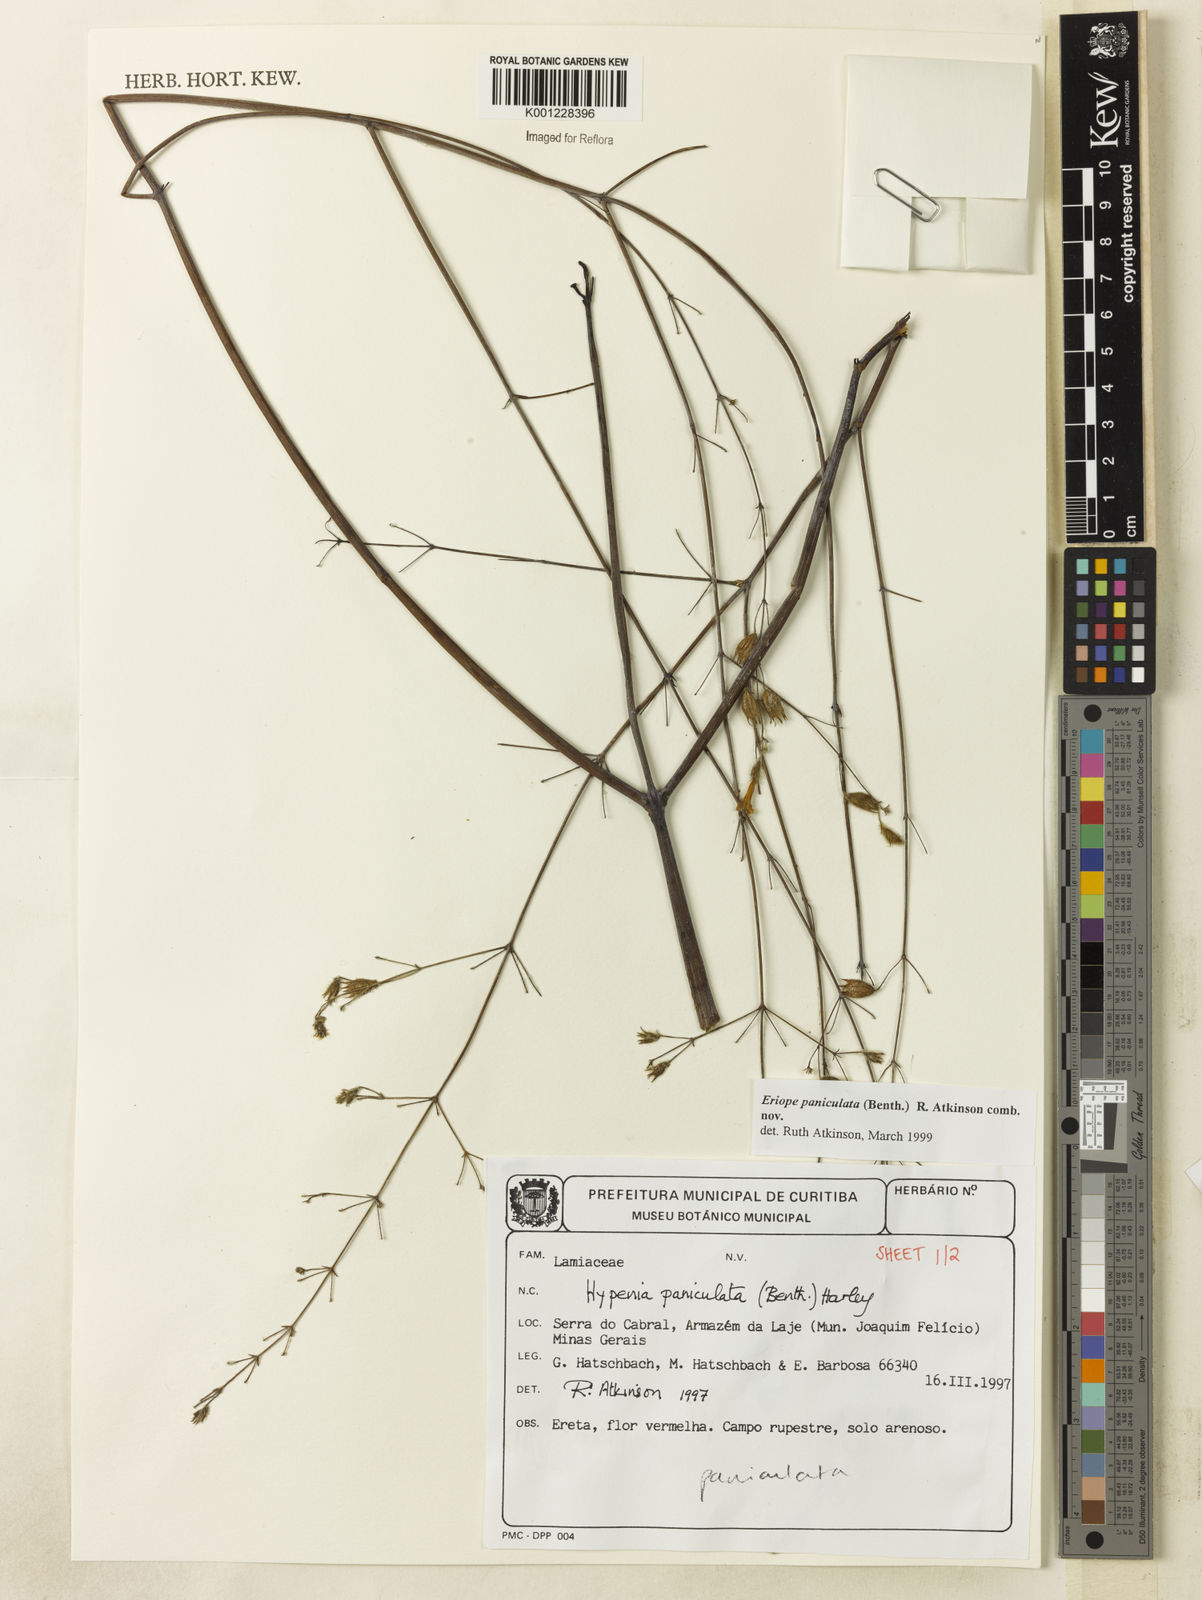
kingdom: Plantae
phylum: Tracheophyta
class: Magnoliopsida
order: Lamiales
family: Lamiaceae
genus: Hypenia
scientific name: Hypenia paniculata
